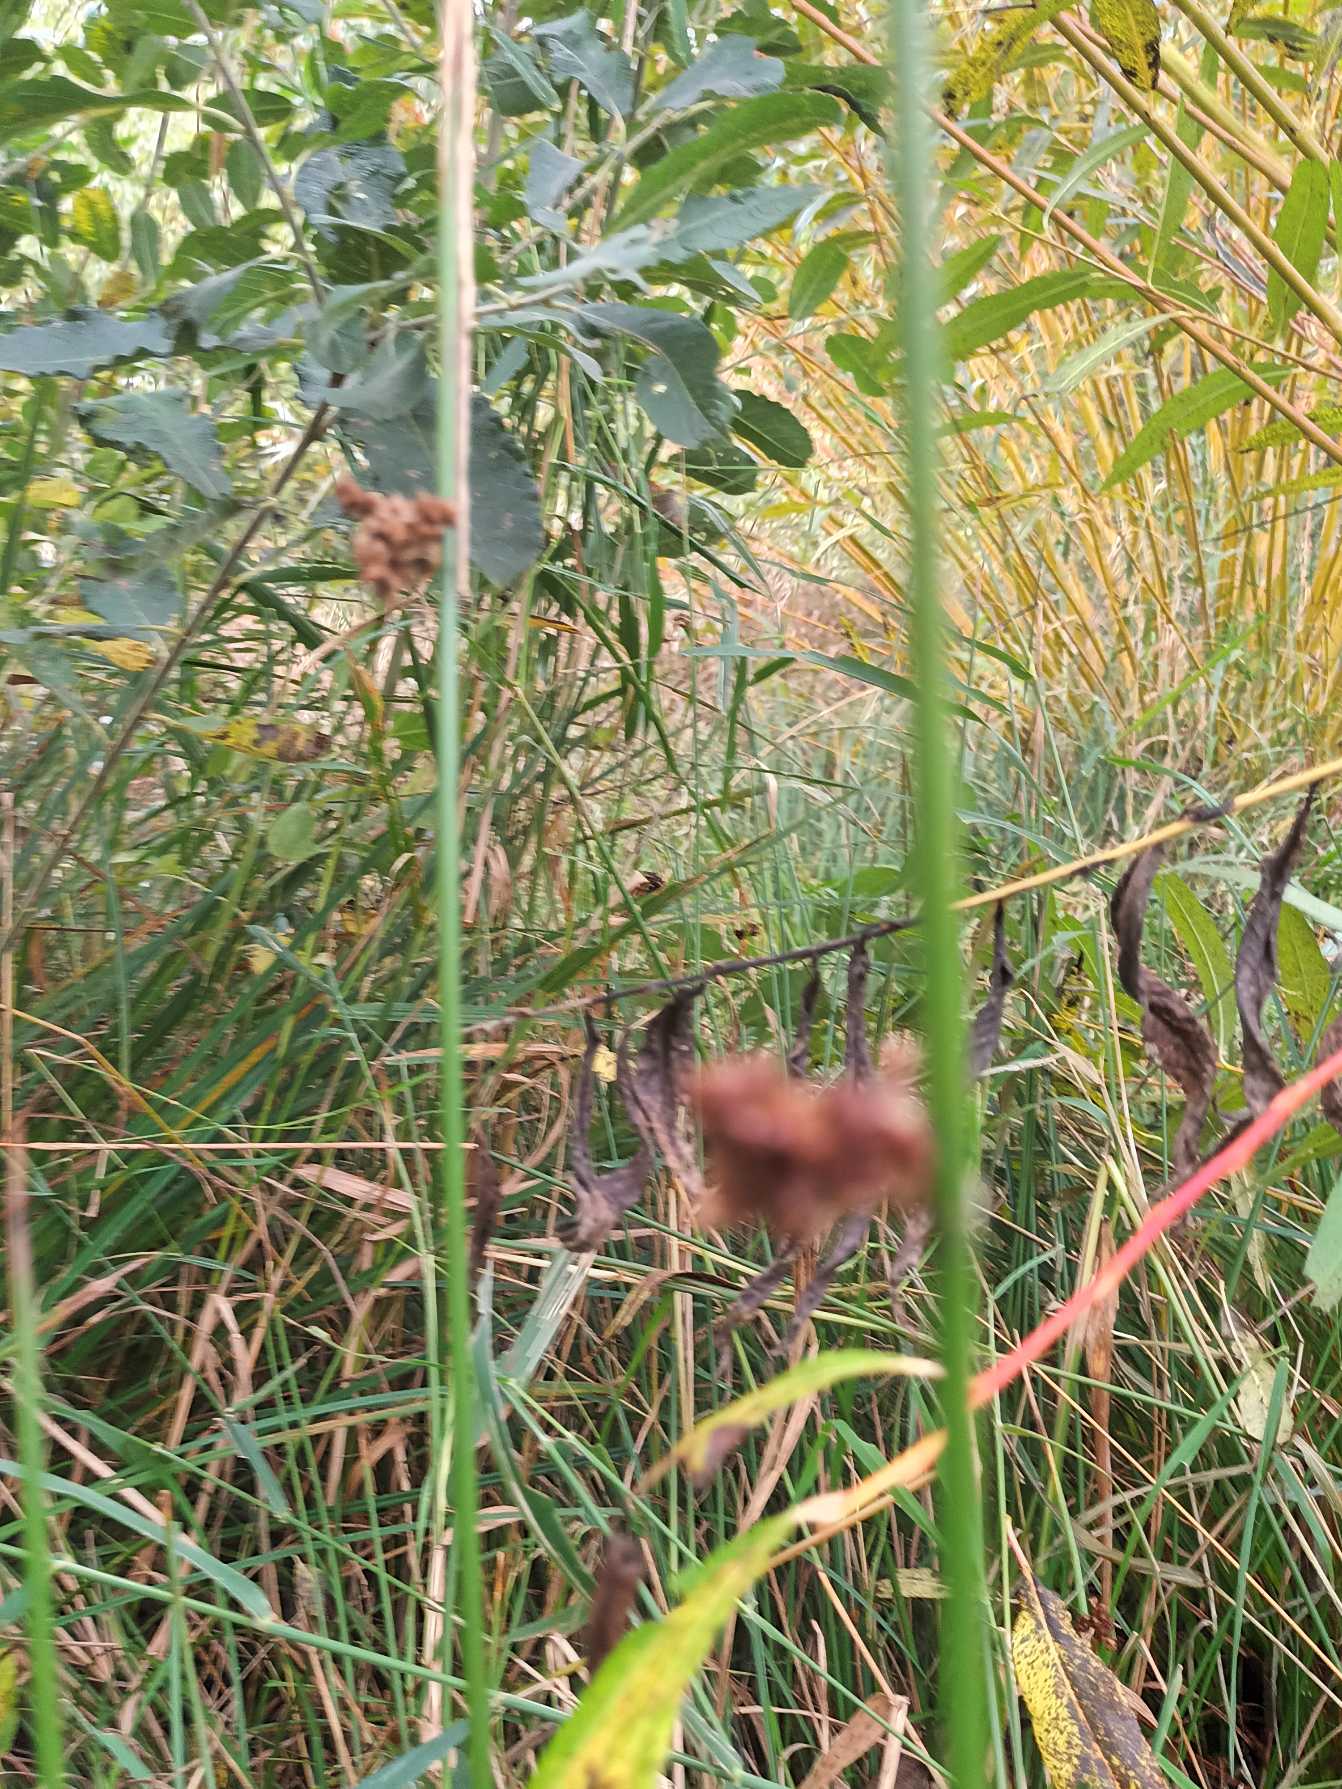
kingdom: Plantae
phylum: Tracheophyta
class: Liliopsida
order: Poales
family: Juncaceae
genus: Juncus
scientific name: Juncus effusus
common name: Lyse-siv
